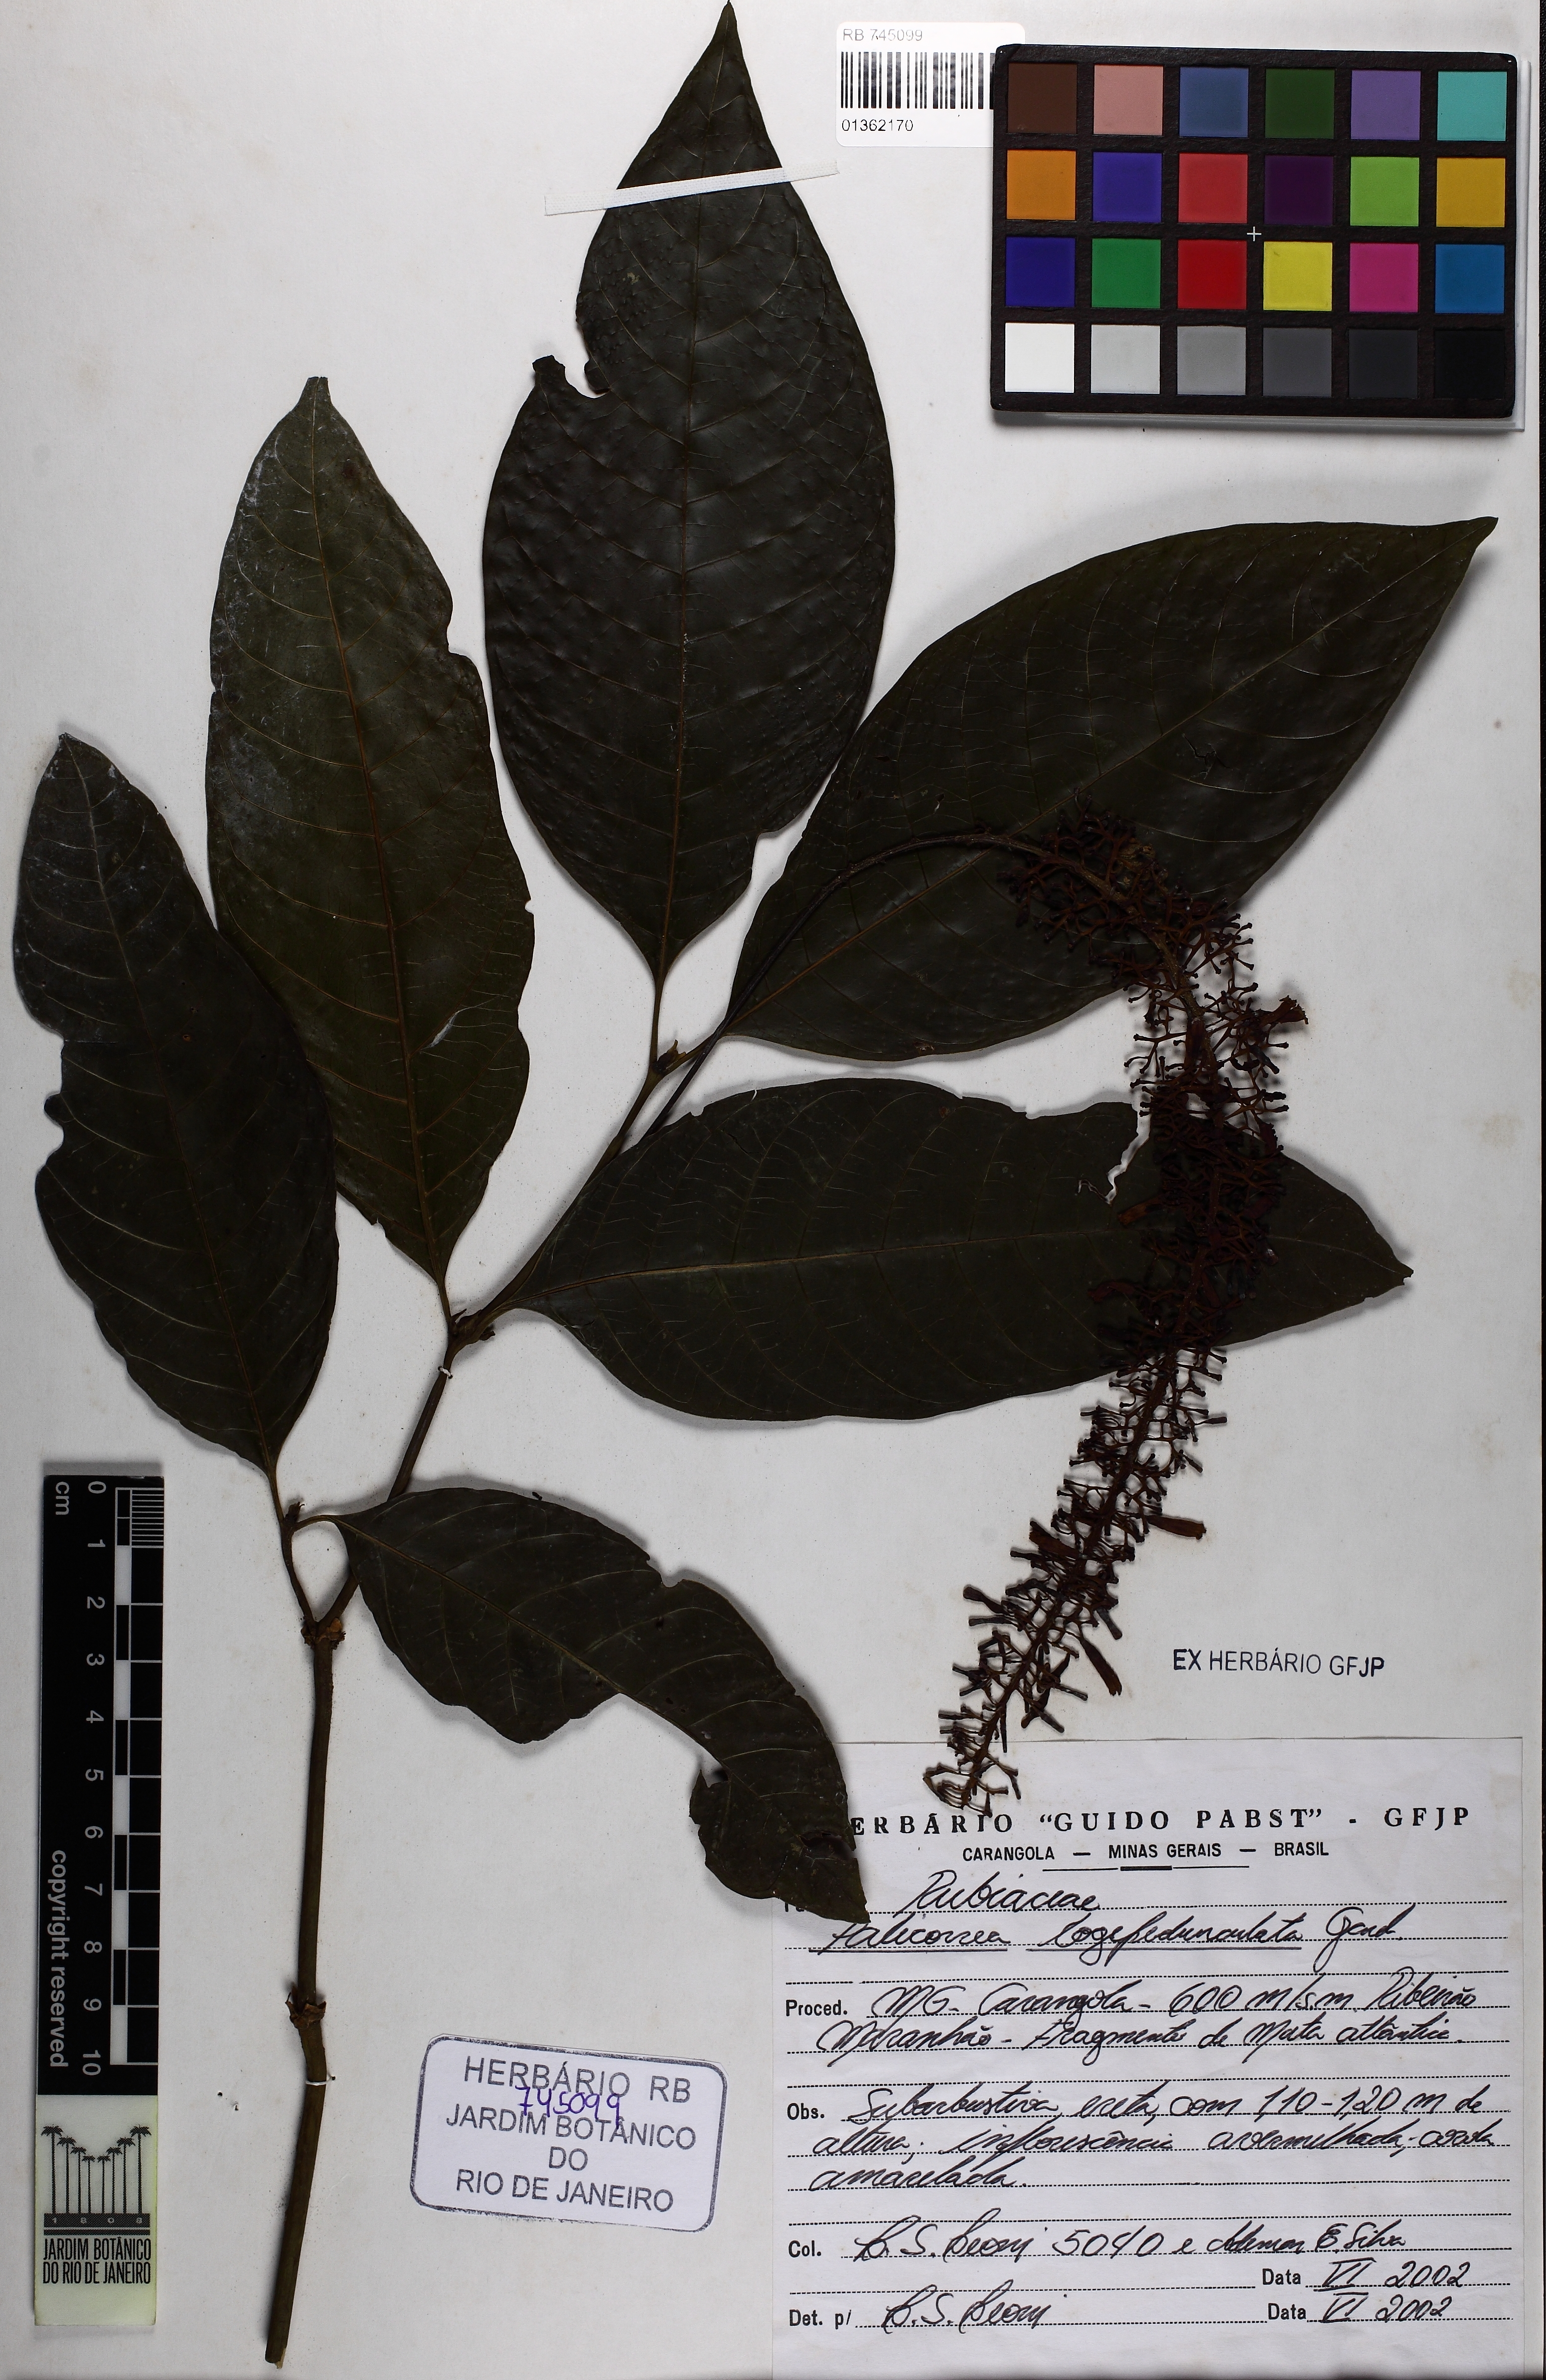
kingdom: Plantae
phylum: Tracheophyta
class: Magnoliopsida
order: Gentianales
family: Rubiaceae
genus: Palicourea
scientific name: Palicourea longipedunculata
